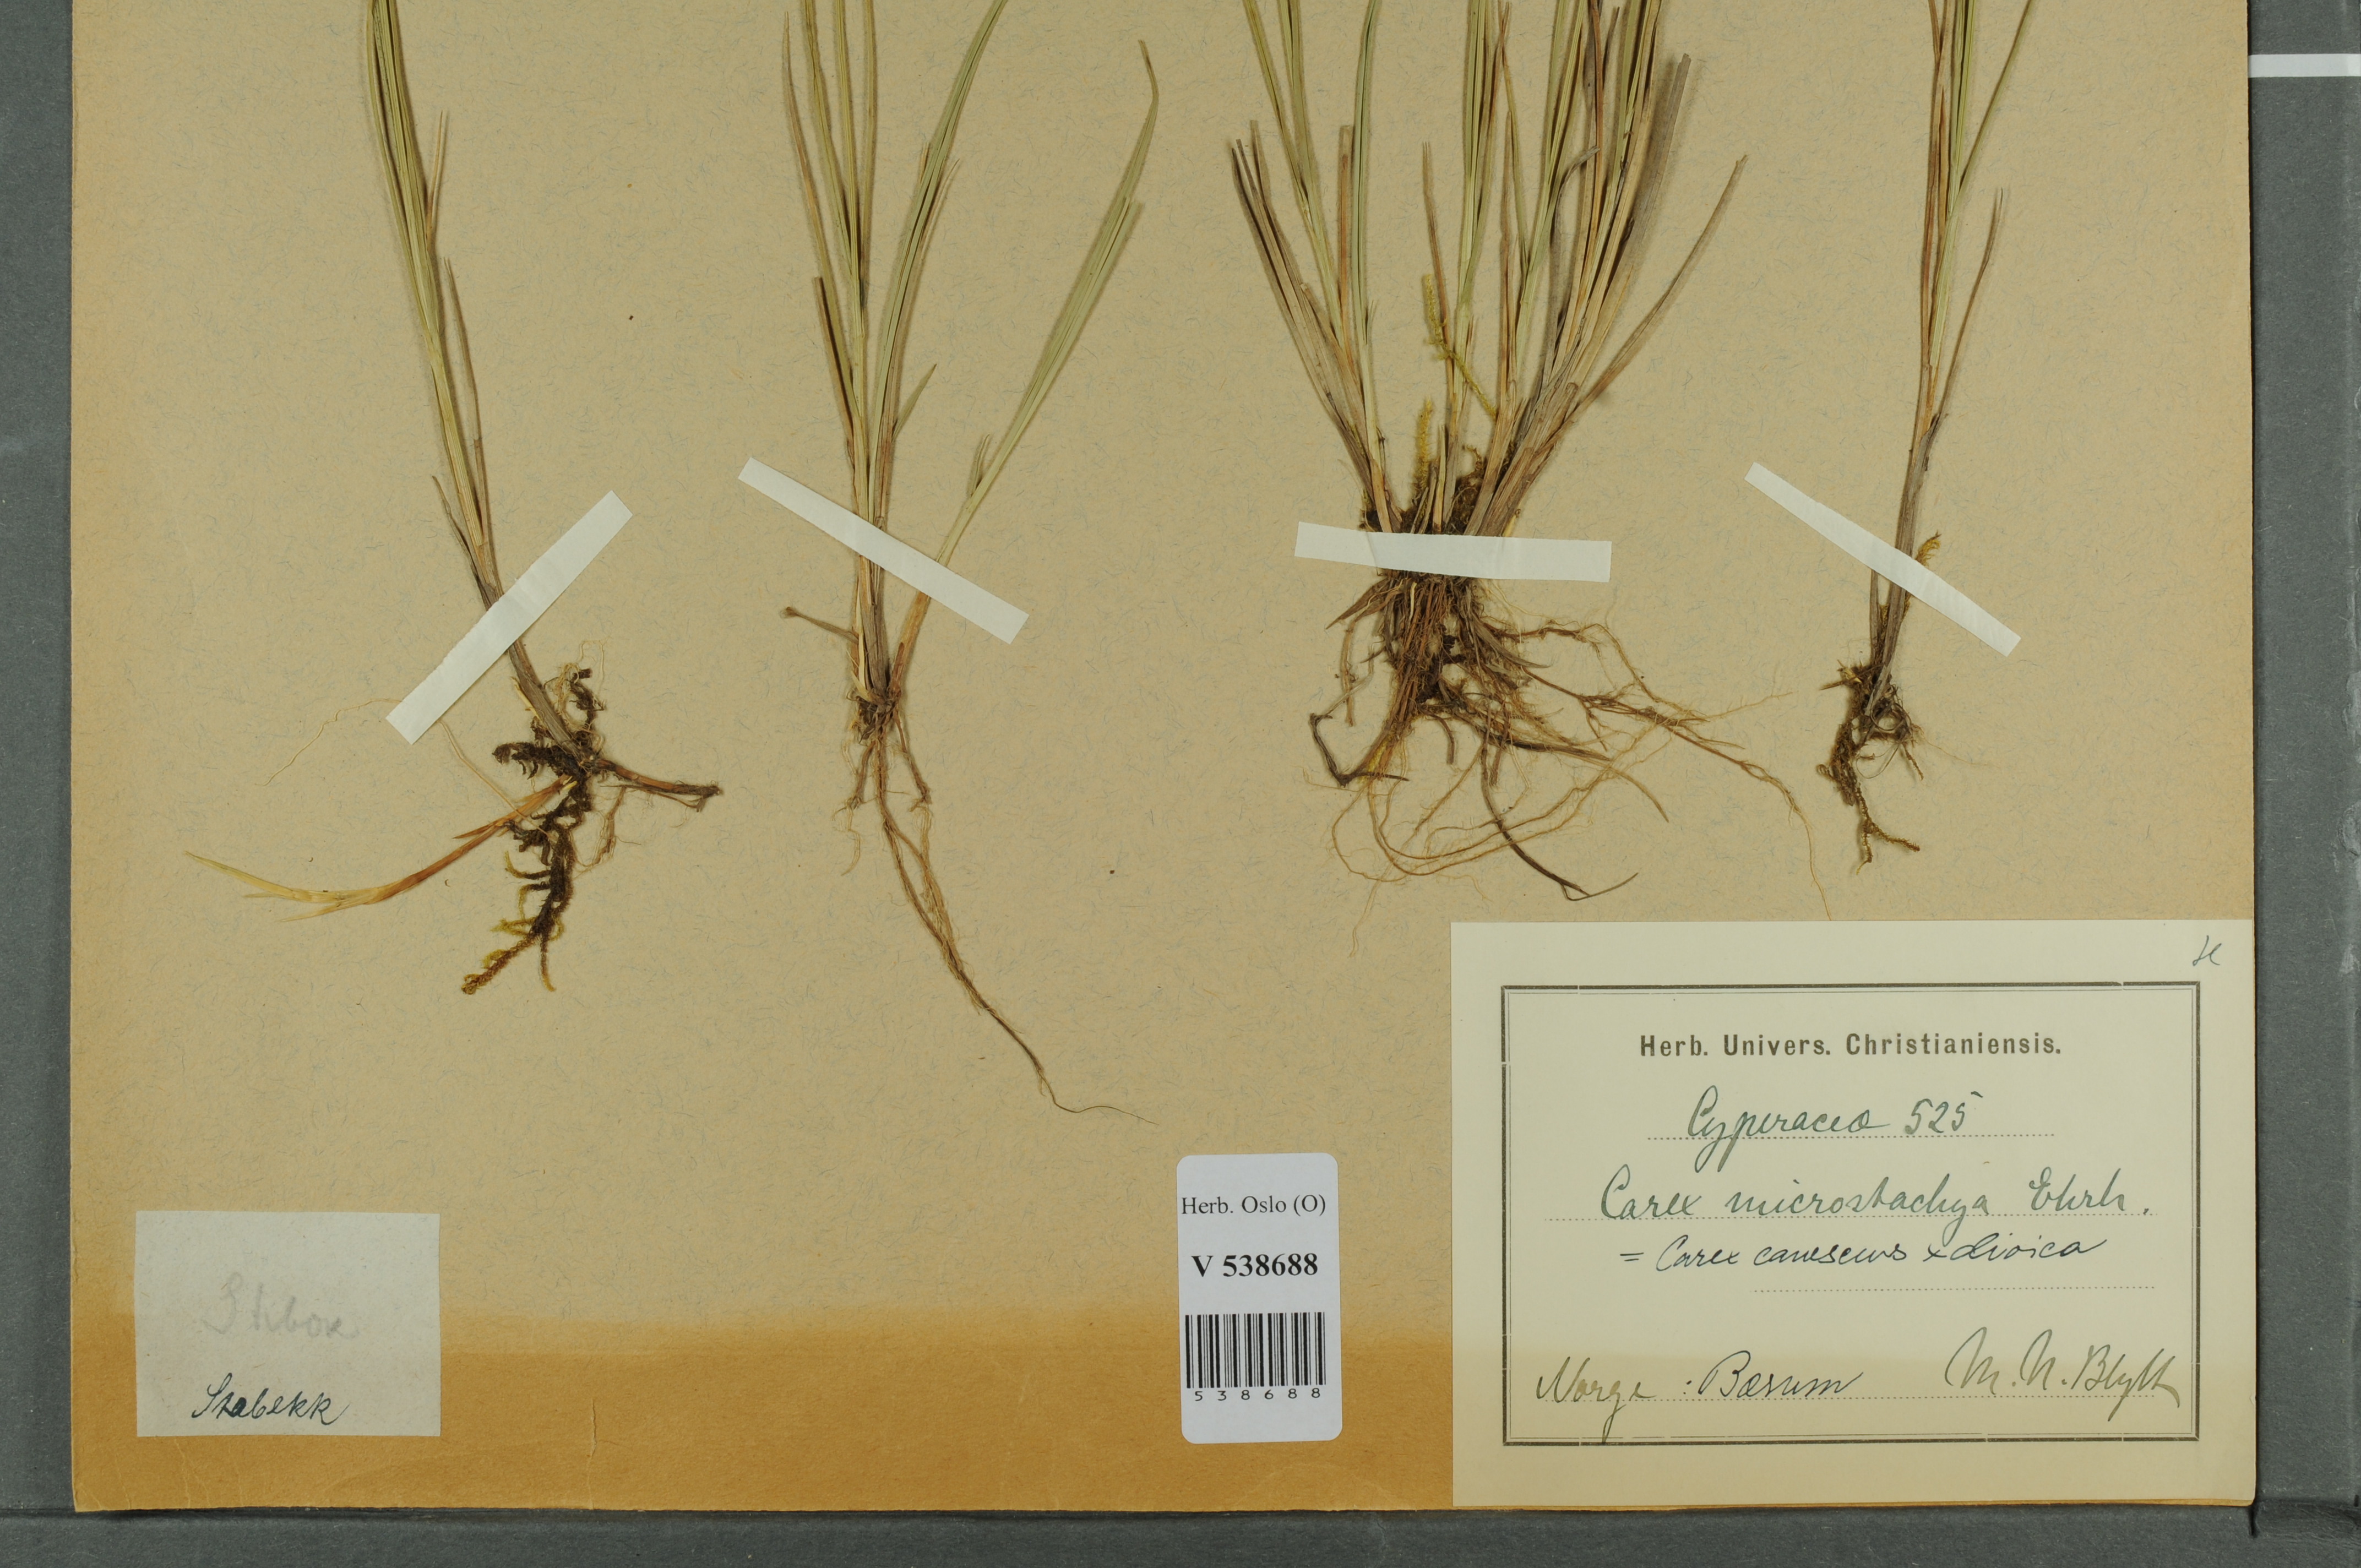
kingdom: Plantae
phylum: Tracheophyta
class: Liliopsida
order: Poales
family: Cyperaceae
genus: Carex
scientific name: Carex
